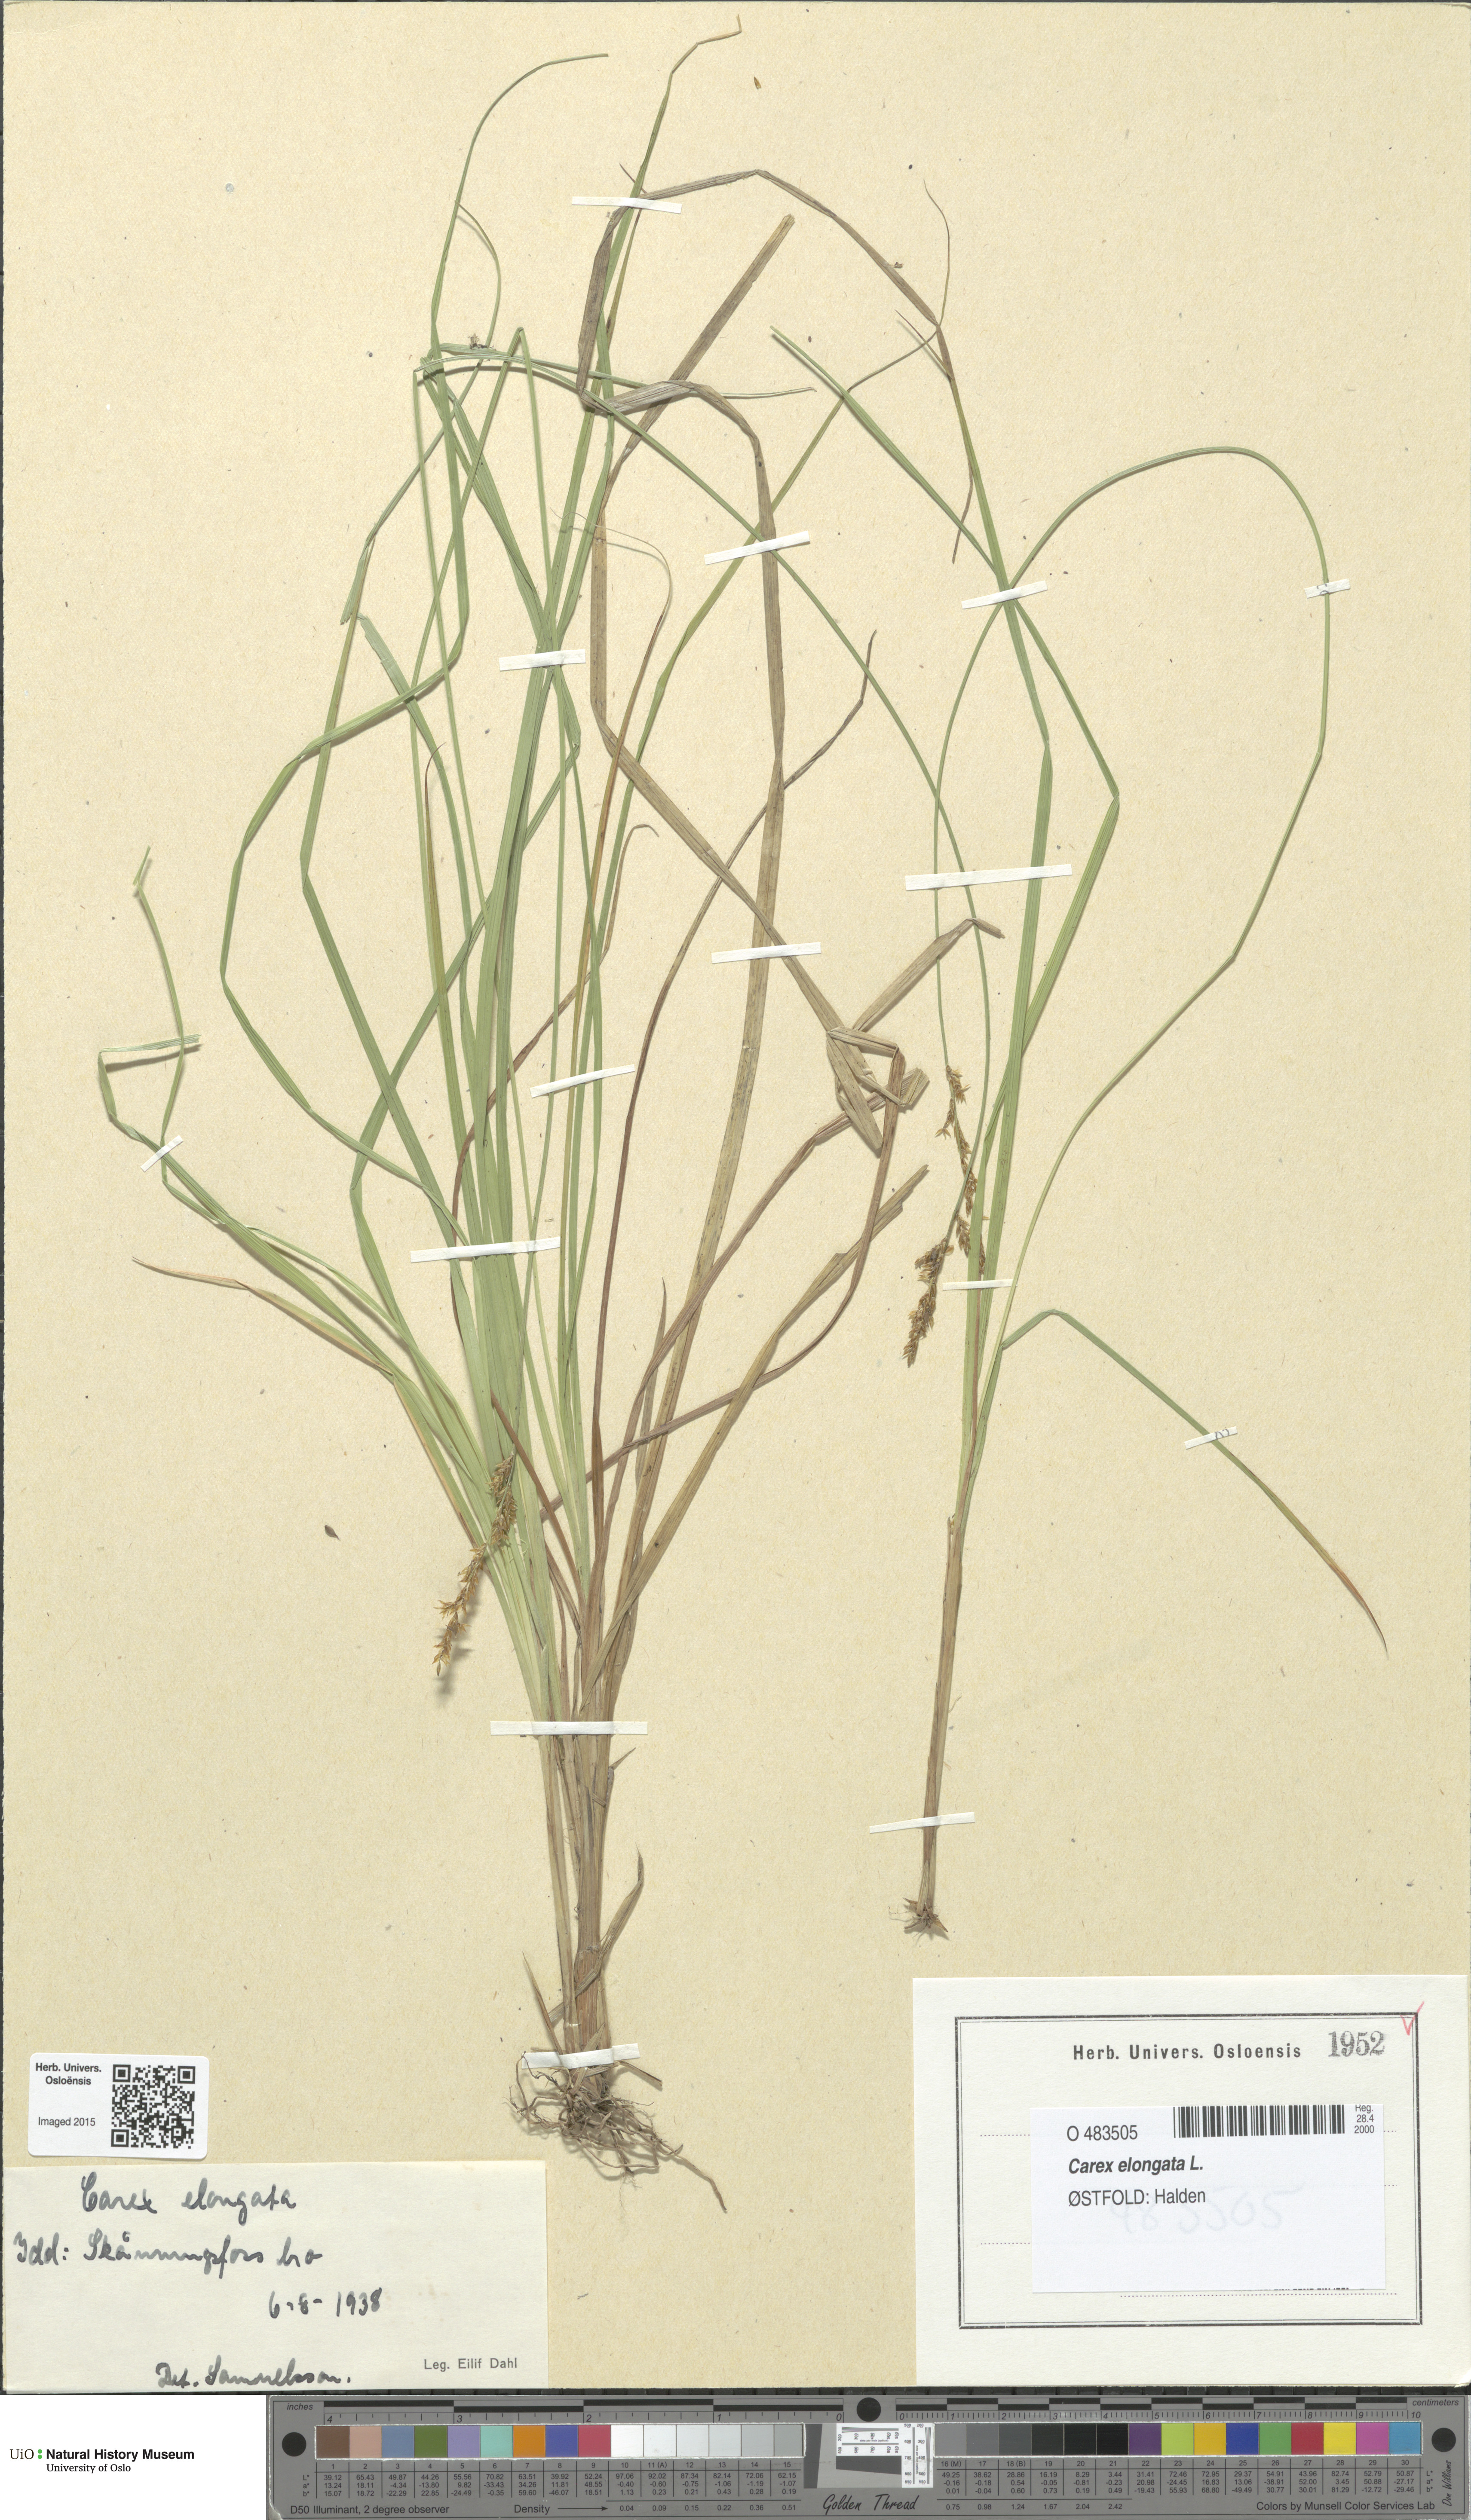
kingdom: Plantae
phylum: Tracheophyta
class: Liliopsida
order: Poales
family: Cyperaceae
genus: Carex
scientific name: Carex elongata
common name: Elongated sedge
